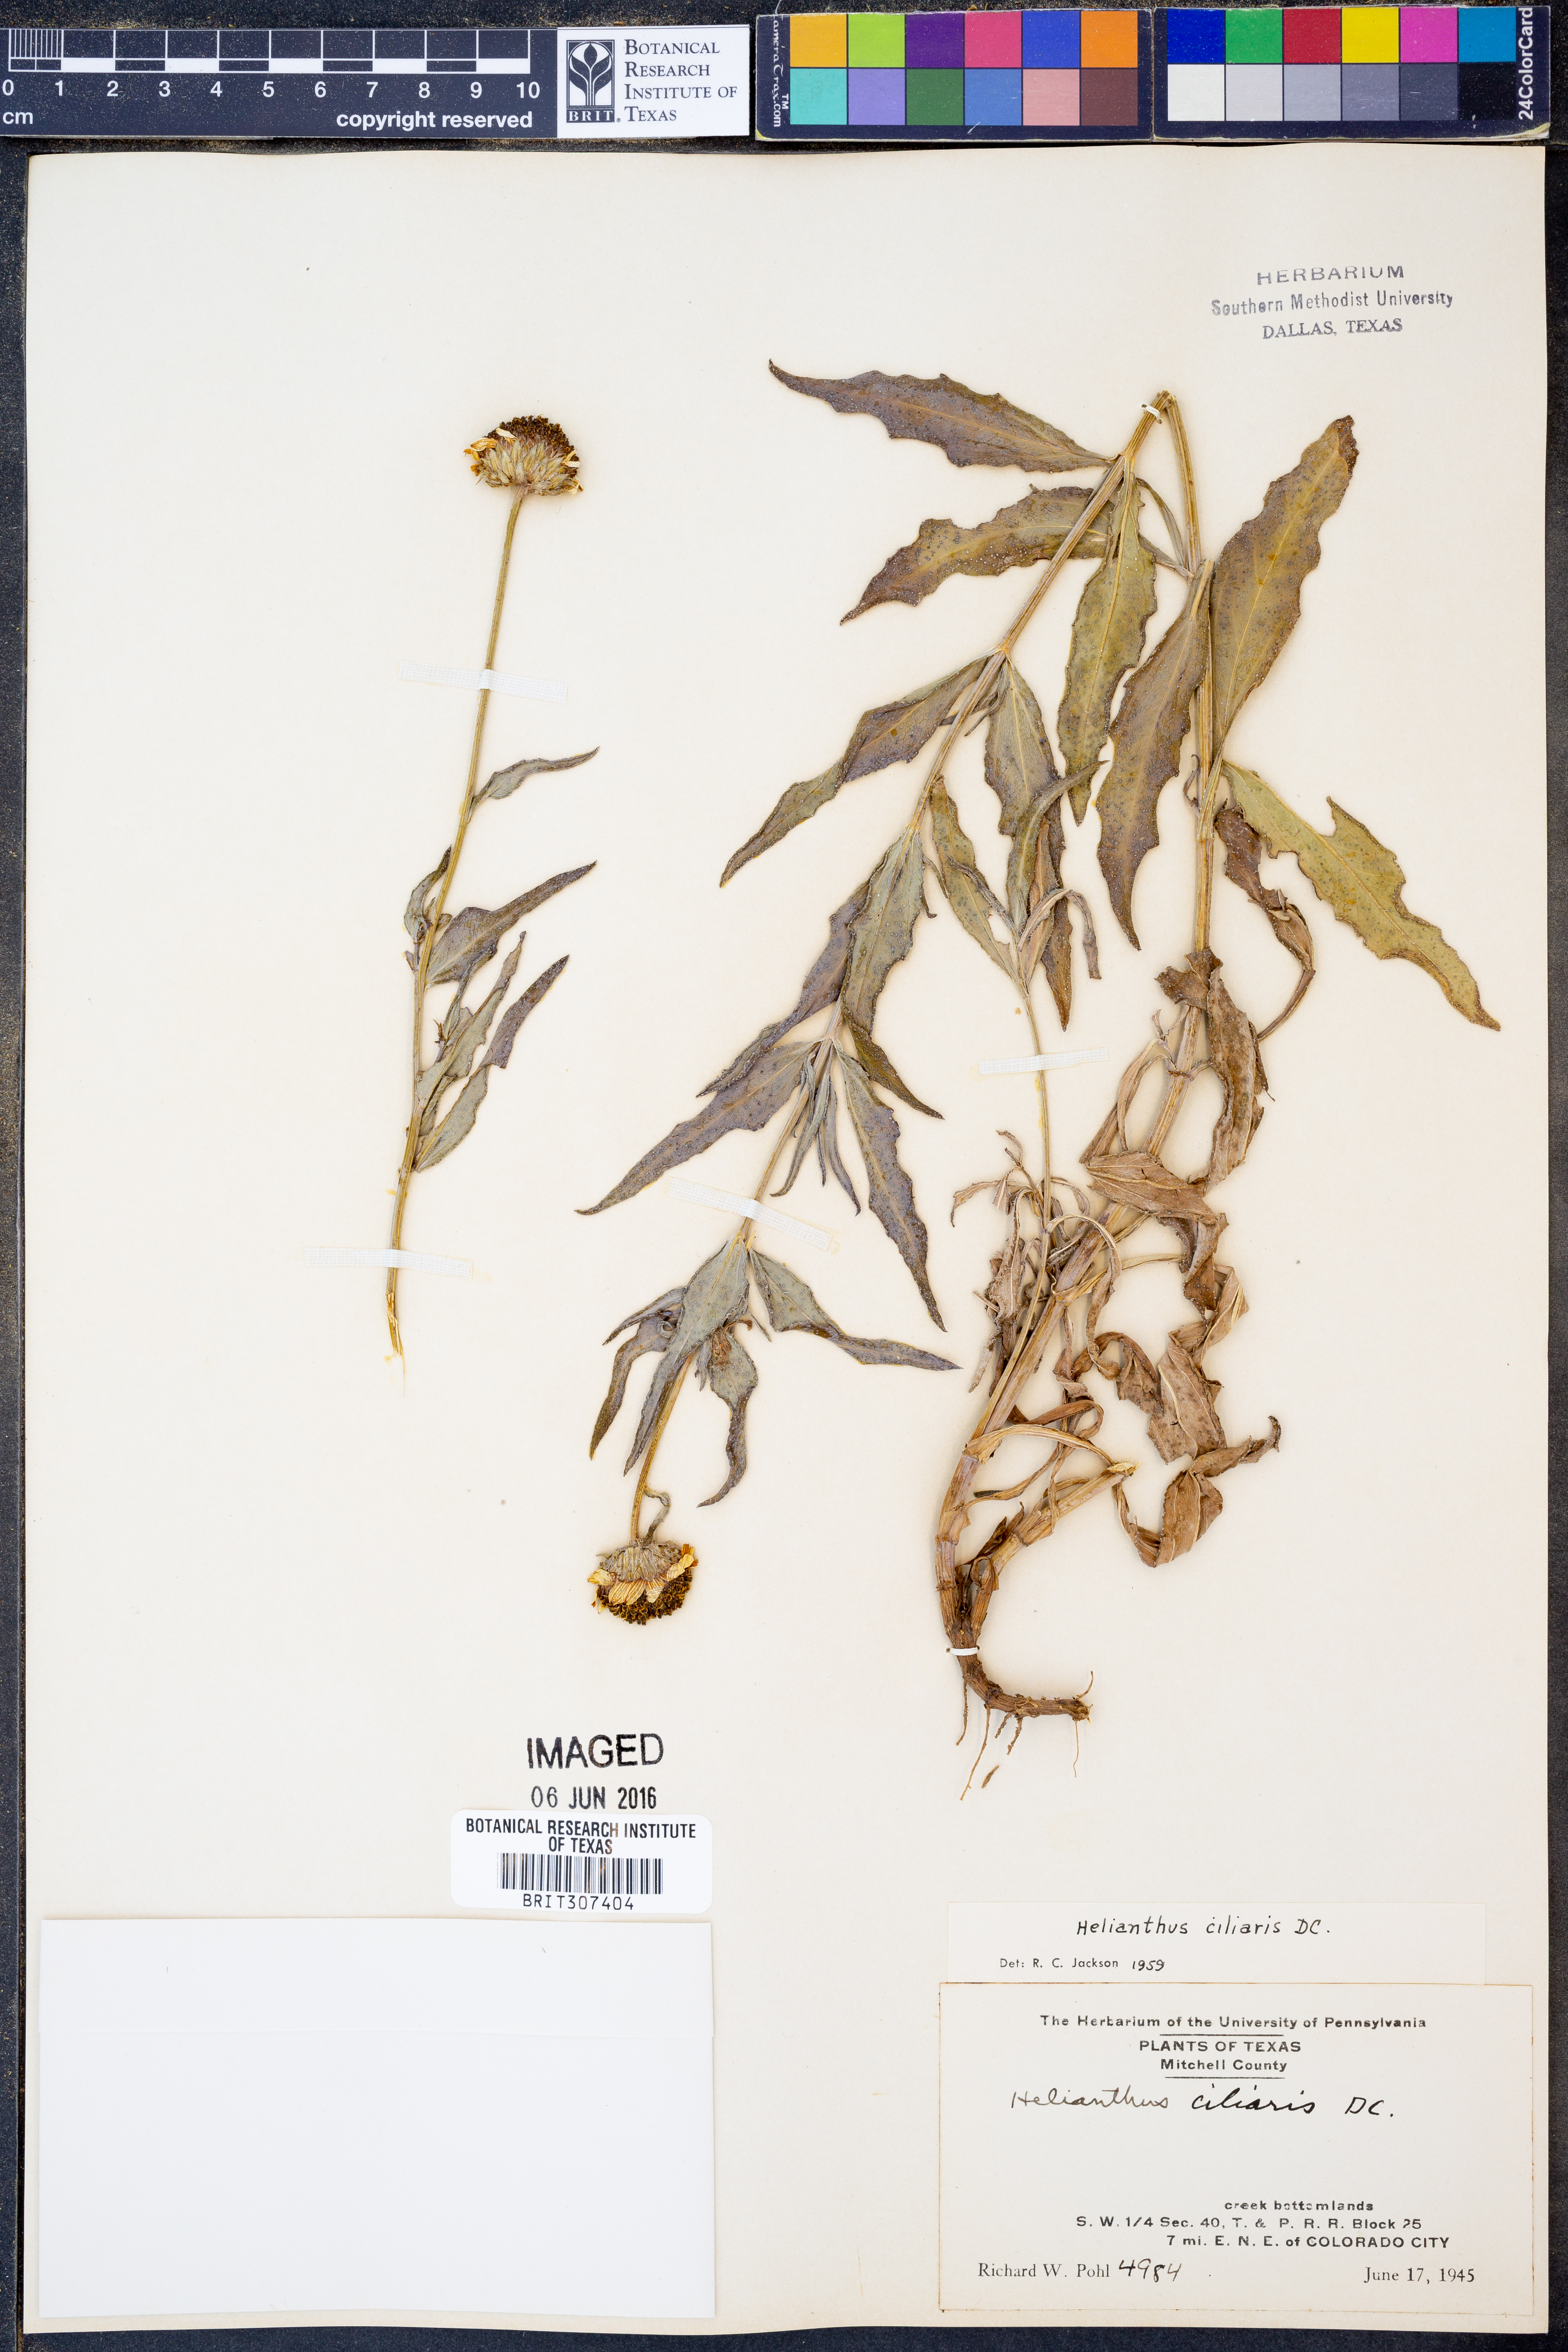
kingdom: Plantae
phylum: Tracheophyta
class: Magnoliopsida
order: Asterales
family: Asteraceae
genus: Helianthus
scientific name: Helianthus ciliaris
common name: Texas blueweed
